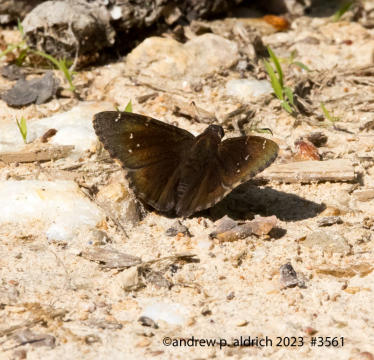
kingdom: Animalia
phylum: Arthropoda
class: Insecta
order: Lepidoptera
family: Hesperiidae
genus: Autochton
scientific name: Autochton
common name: Northern Cloudywing
